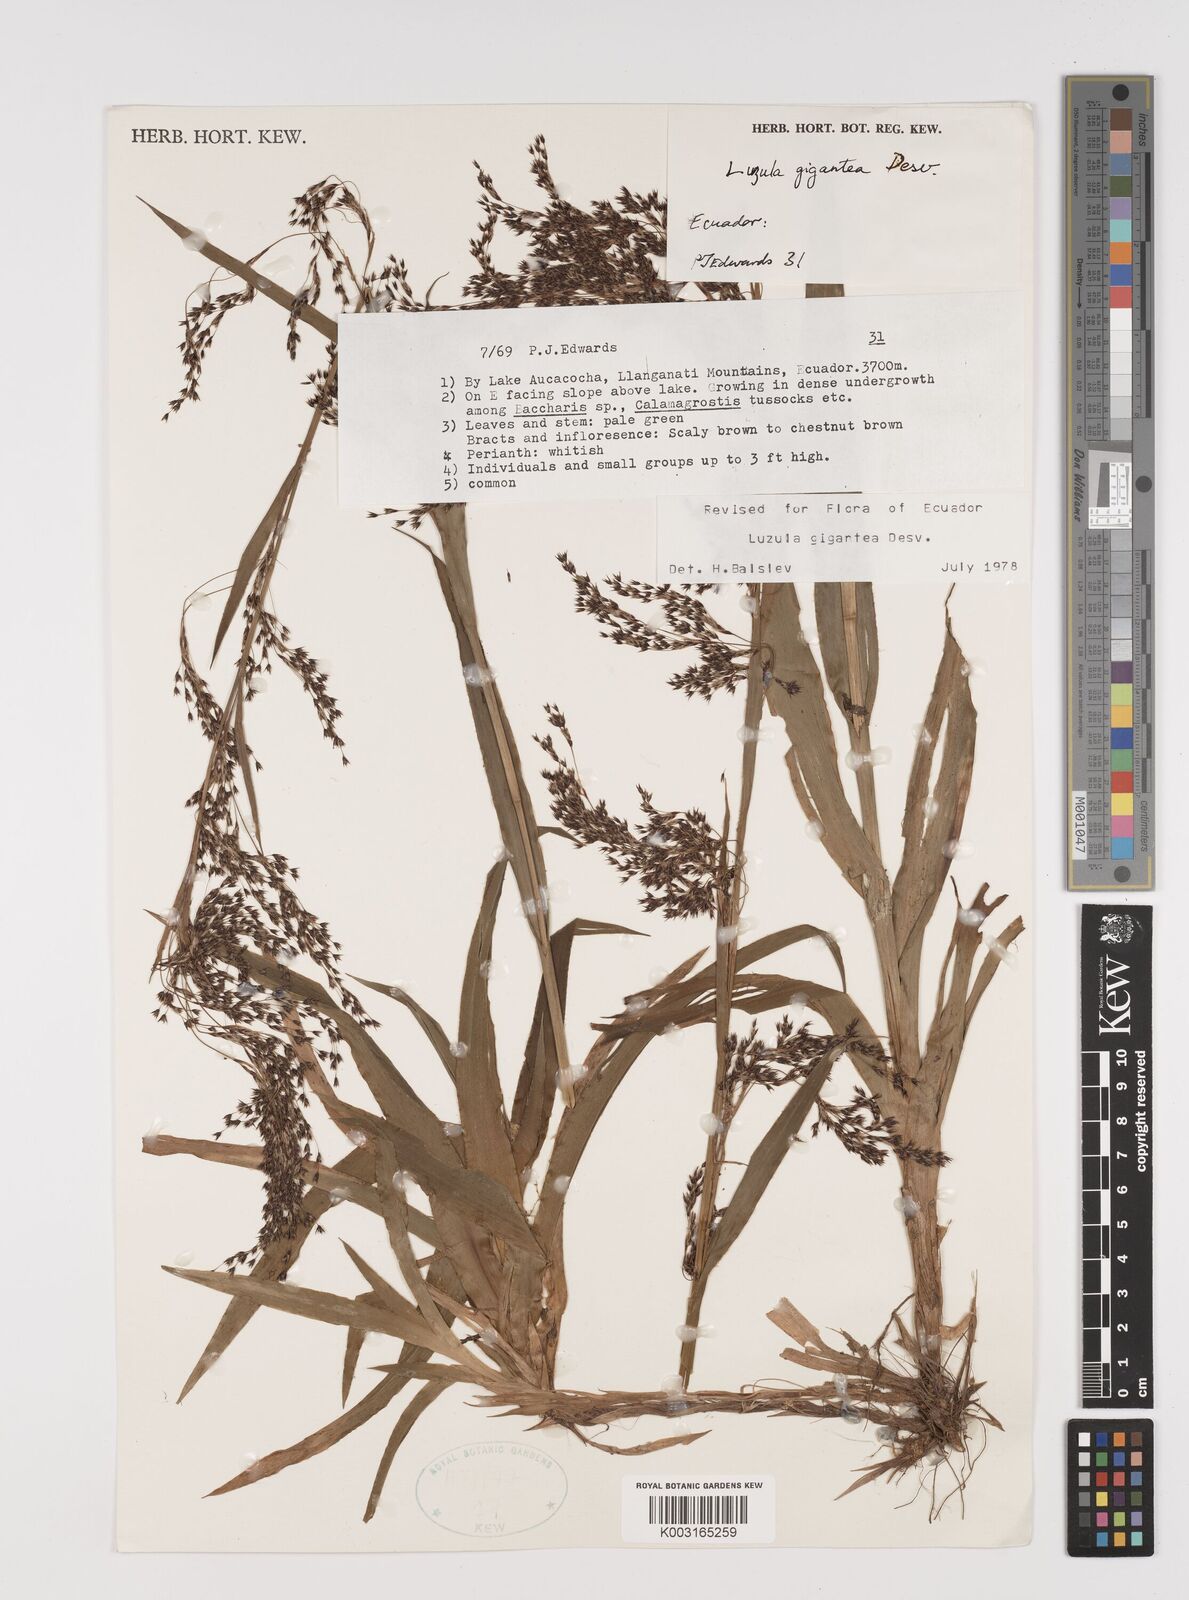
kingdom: Plantae
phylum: Tracheophyta
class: Liliopsida
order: Poales
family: Juncaceae
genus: Luzula
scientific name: Luzula gigantea
